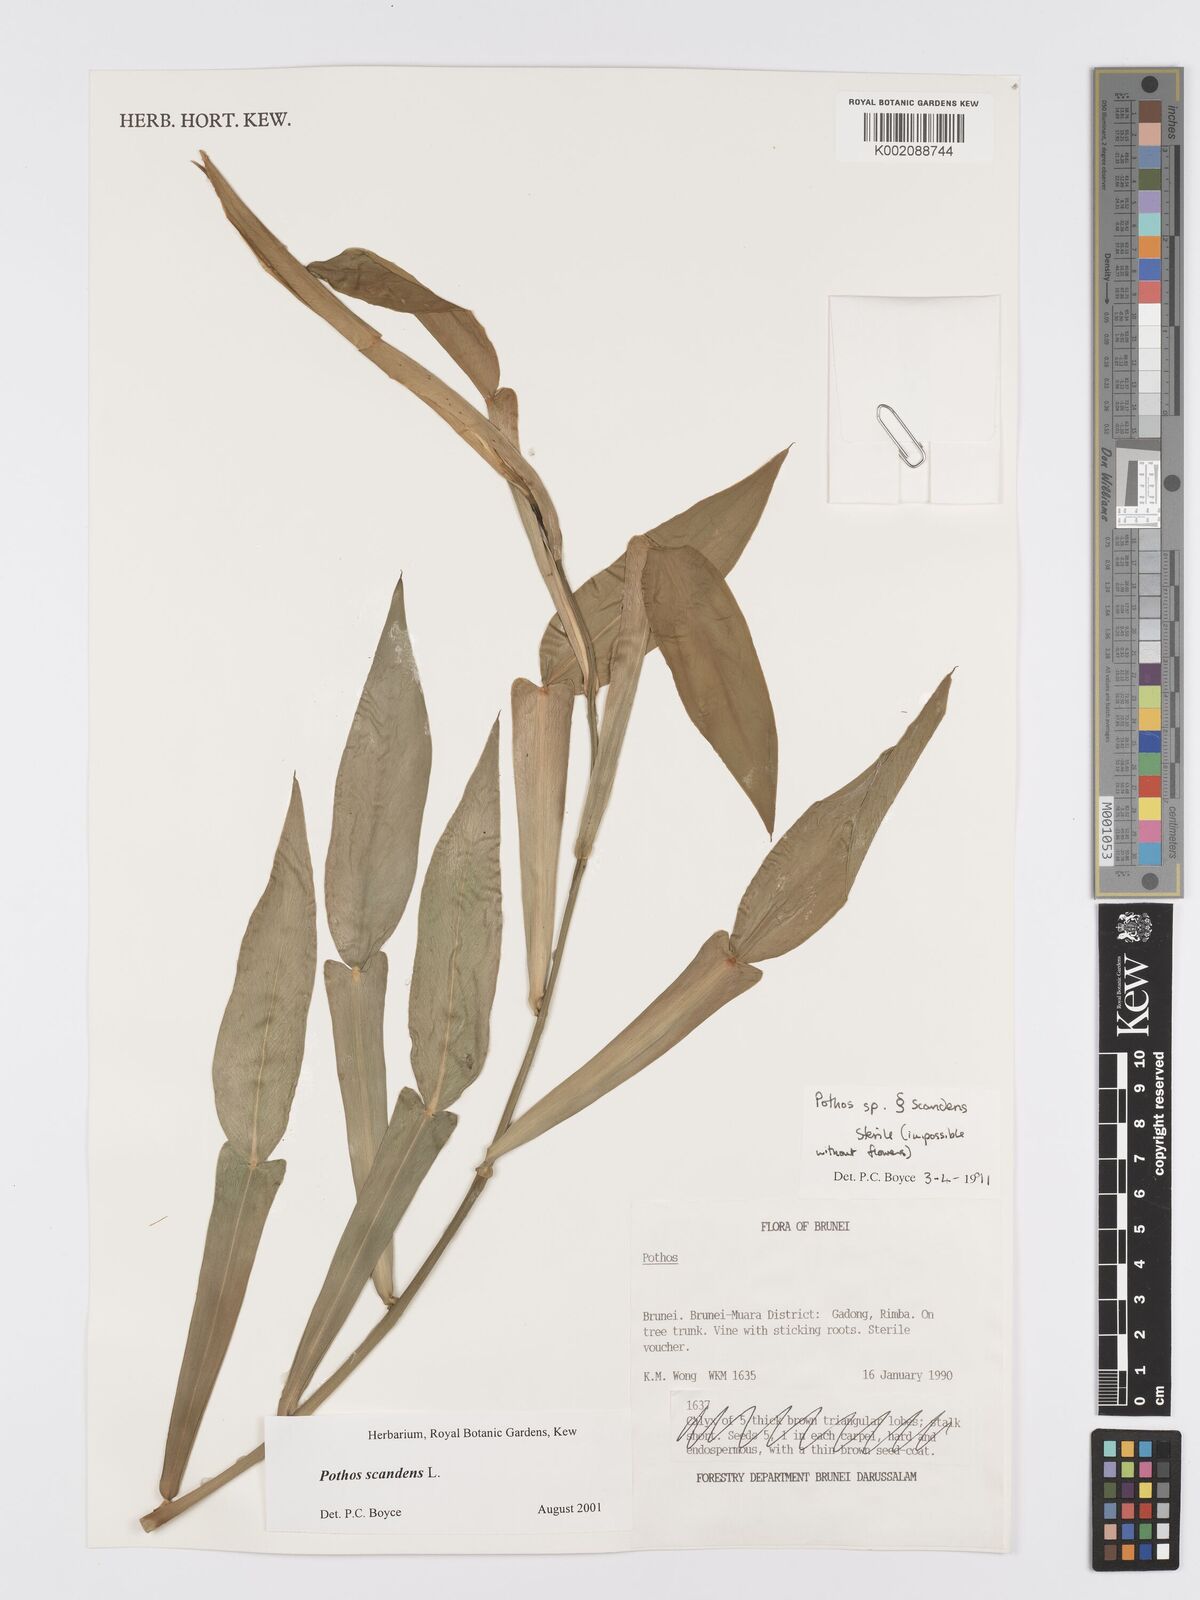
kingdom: Plantae
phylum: Tracheophyta
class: Liliopsida
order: Alismatales
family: Araceae
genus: Pothos
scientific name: Pothos scandens
